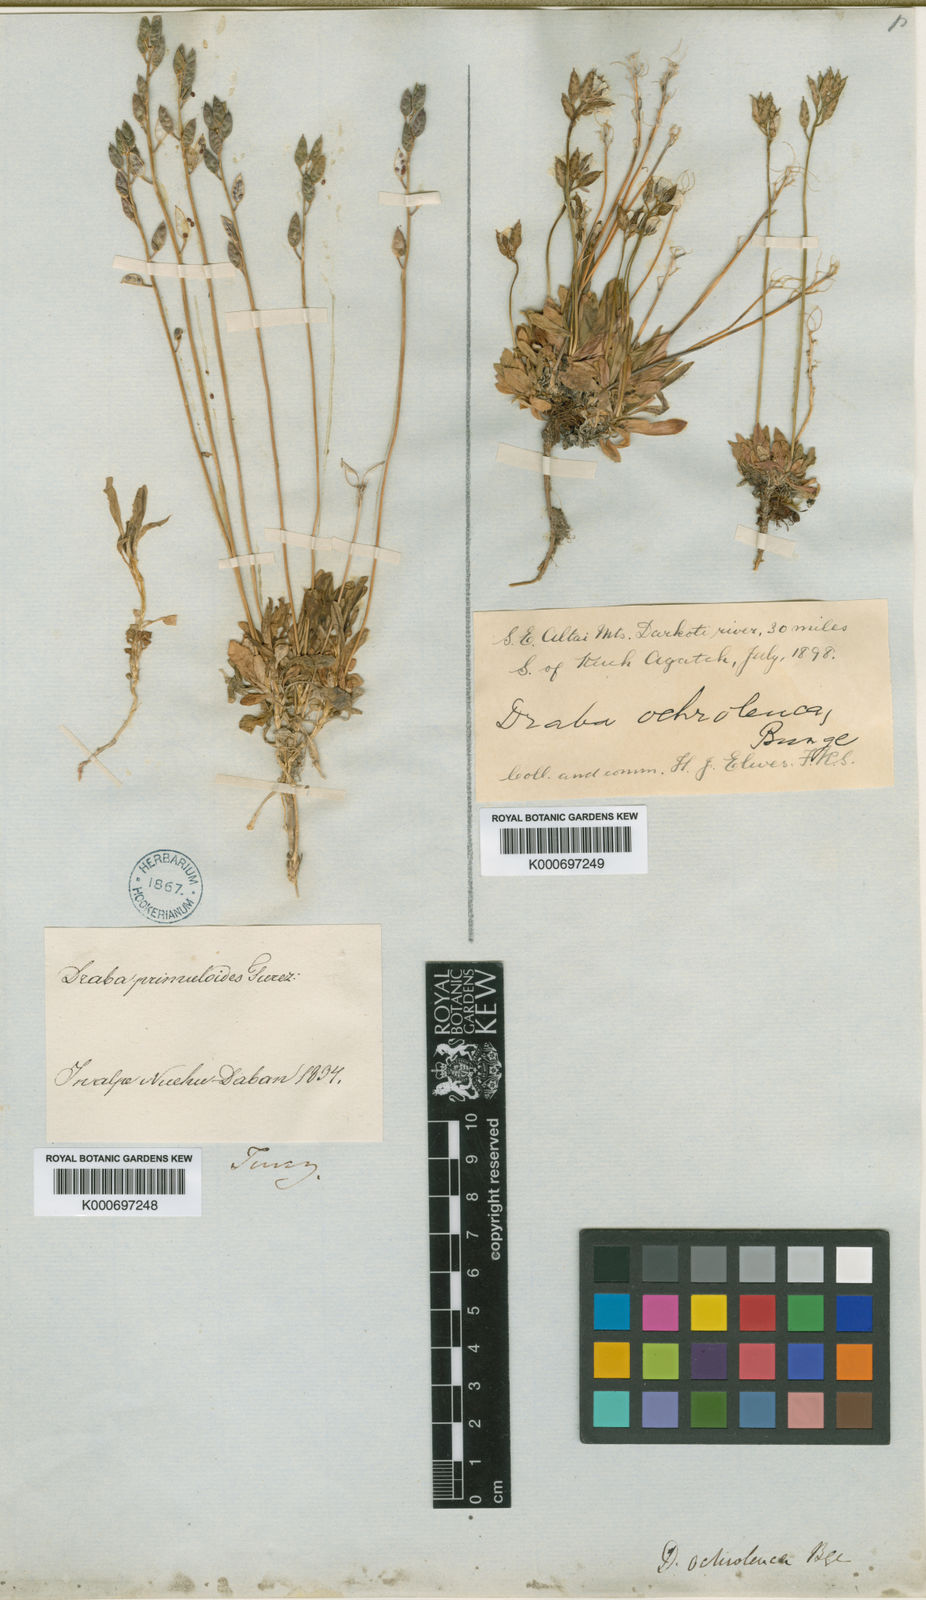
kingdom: Plantae
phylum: Tracheophyta
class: Magnoliopsida
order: Brassicales
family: Brassicaceae
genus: Draba
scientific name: Draba ochroleuca
